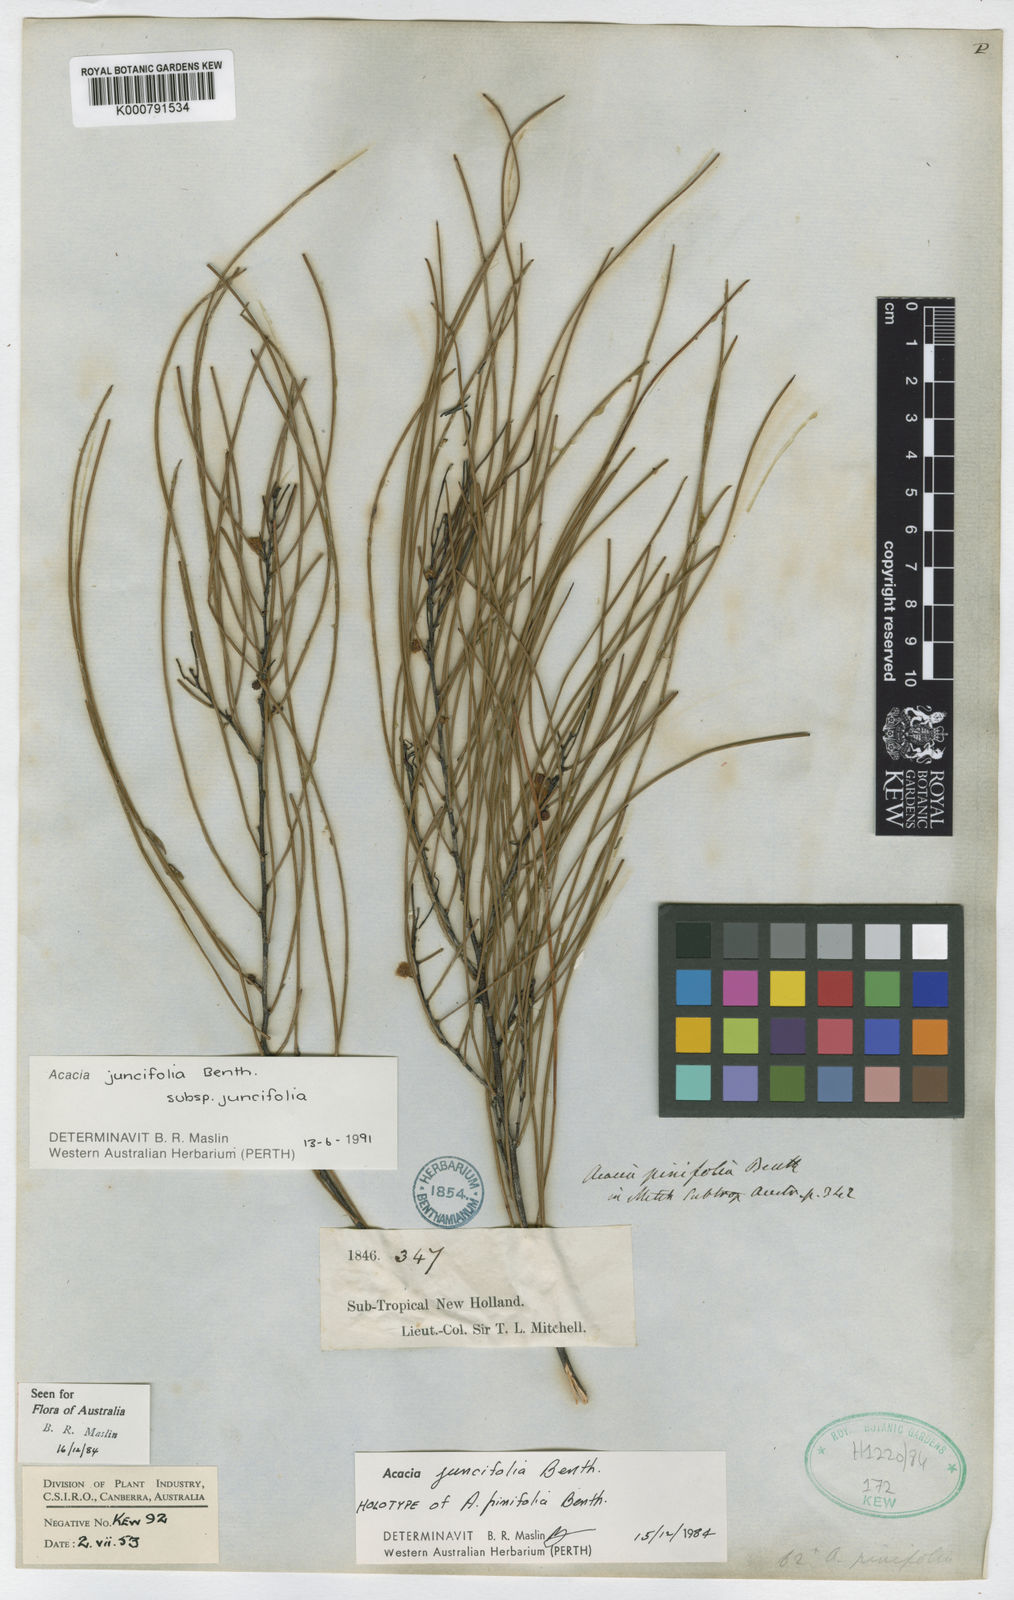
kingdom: Plantae
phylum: Tracheophyta
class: Magnoliopsida
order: Fabales
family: Fabaceae
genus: Acacia
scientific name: Acacia juncifolia
